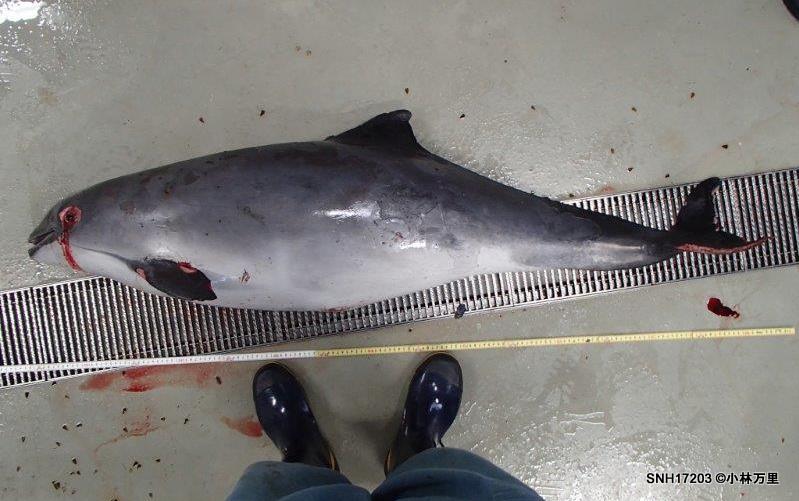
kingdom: Animalia
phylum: Chordata
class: Mammalia
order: Cetacea
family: Phocoenidae
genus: Phocoena
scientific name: Phocoena phocoena
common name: Harbour porpoise
